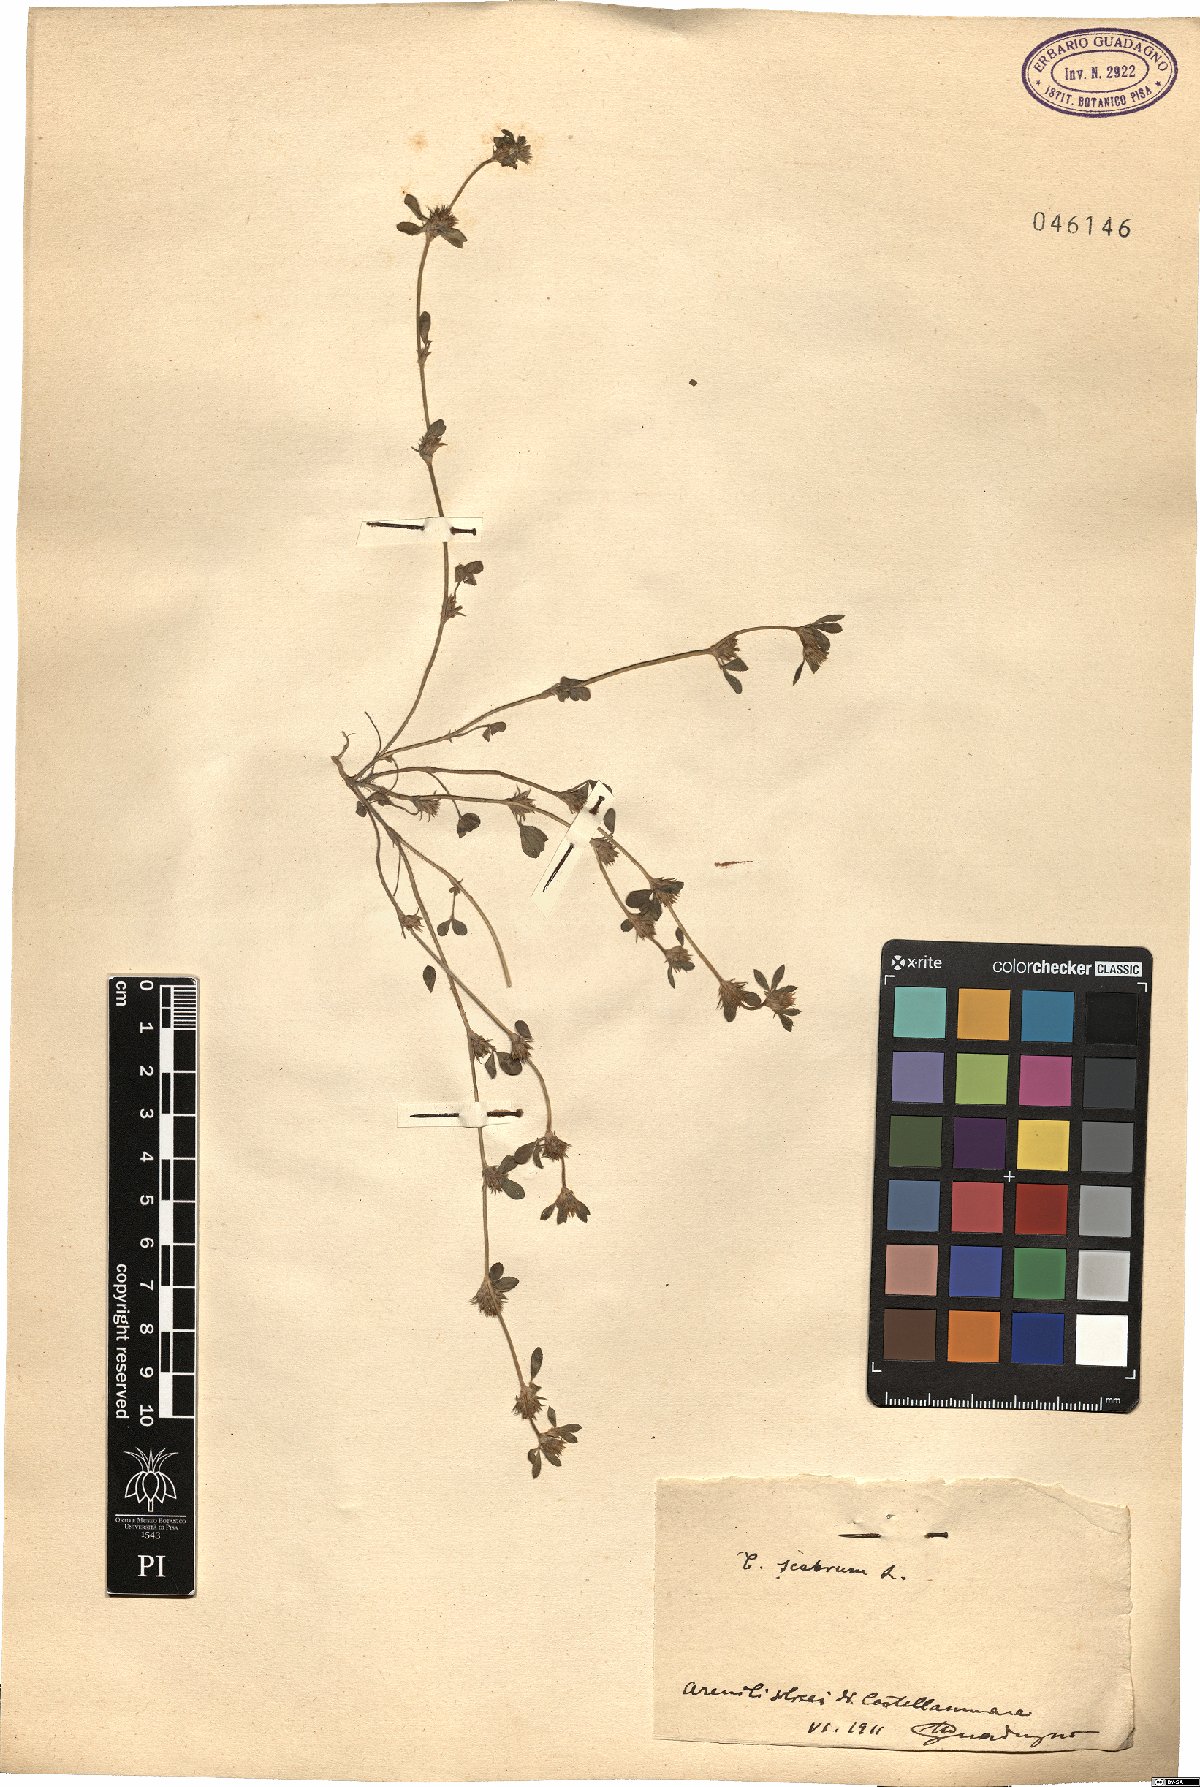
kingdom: Plantae
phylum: Tracheophyta
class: Magnoliopsida
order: Fabales
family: Fabaceae
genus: Trifolium
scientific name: Trifolium scabrum
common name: Rough clover
